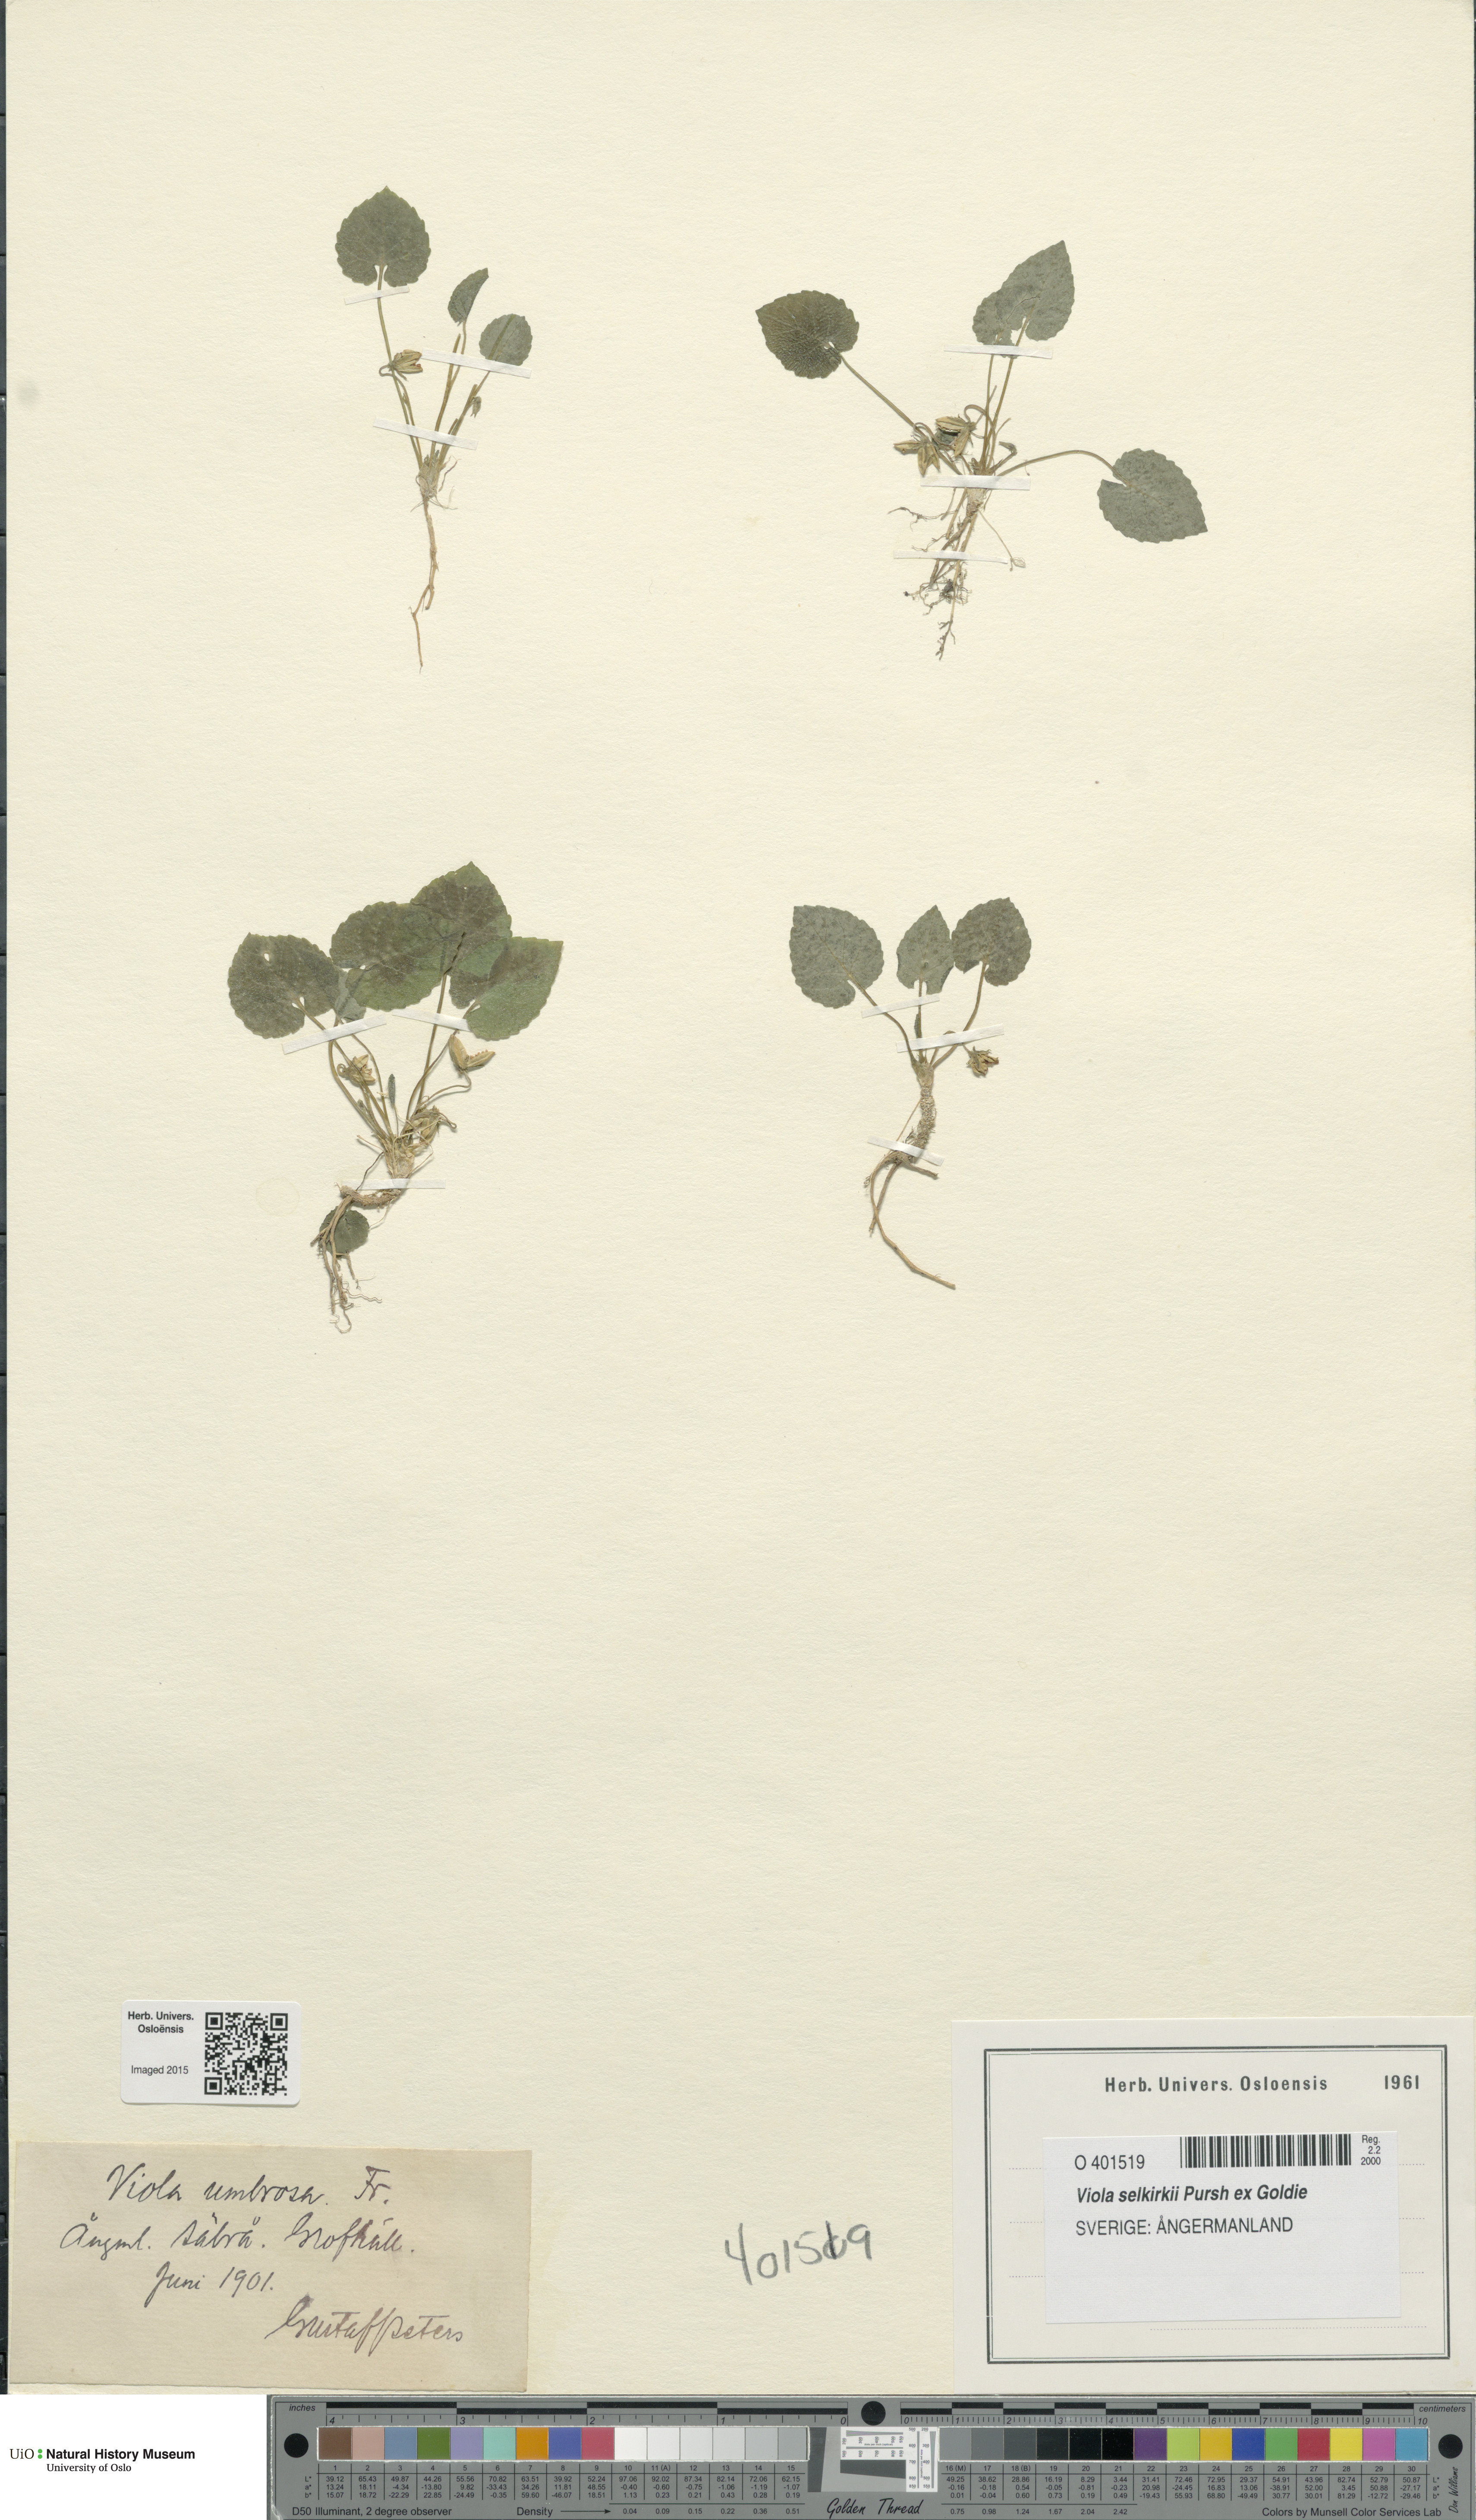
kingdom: Plantae
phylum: Tracheophyta
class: Magnoliopsida
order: Malpighiales
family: Violaceae
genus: Viola
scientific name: Viola selkirkii
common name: Selkirk's violet
